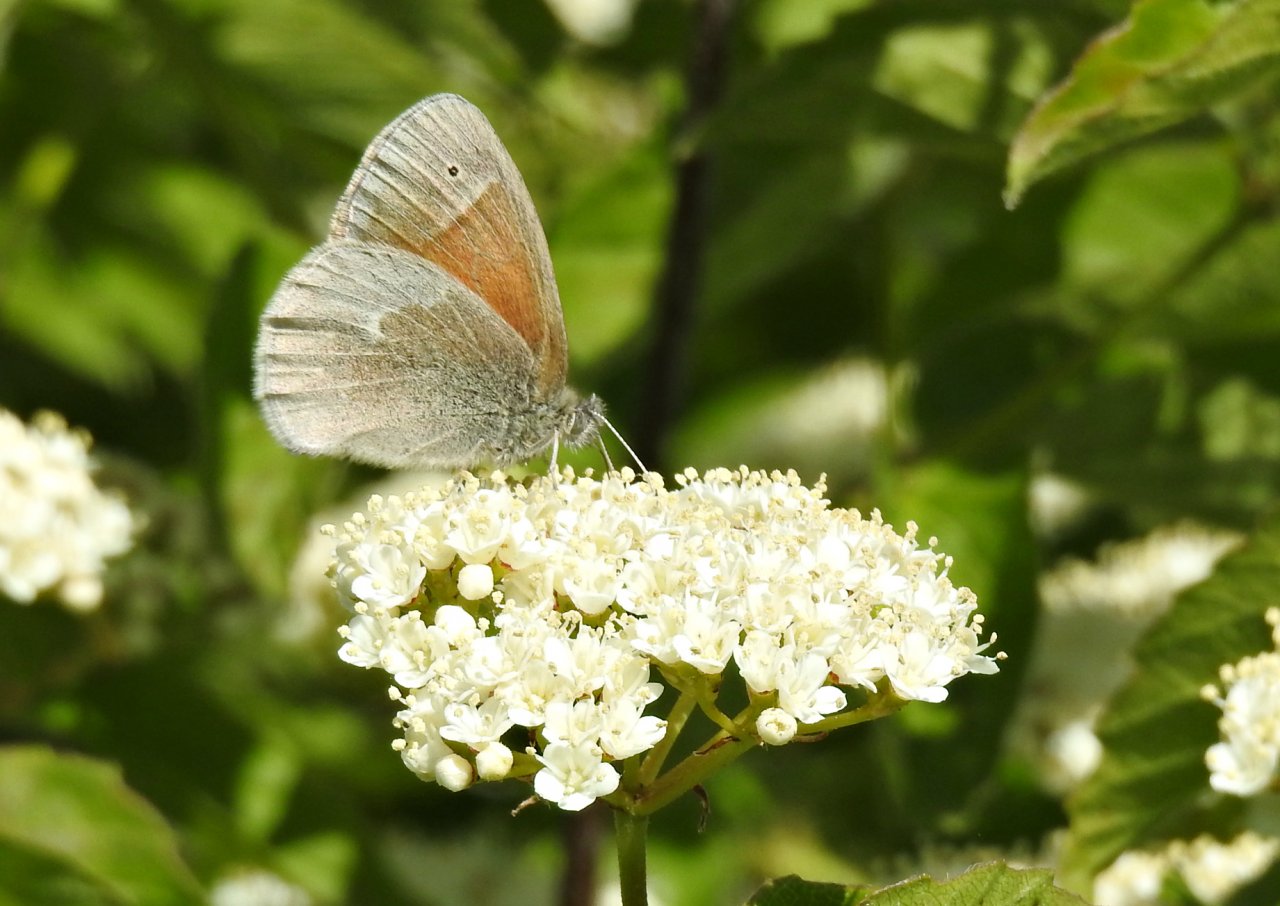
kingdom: Animalia
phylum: Arthropoda
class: Insecta
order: Lepidoptera
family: Nymphalidae
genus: Coenonympha
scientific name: Coenonympha tullia
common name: Large Heath
